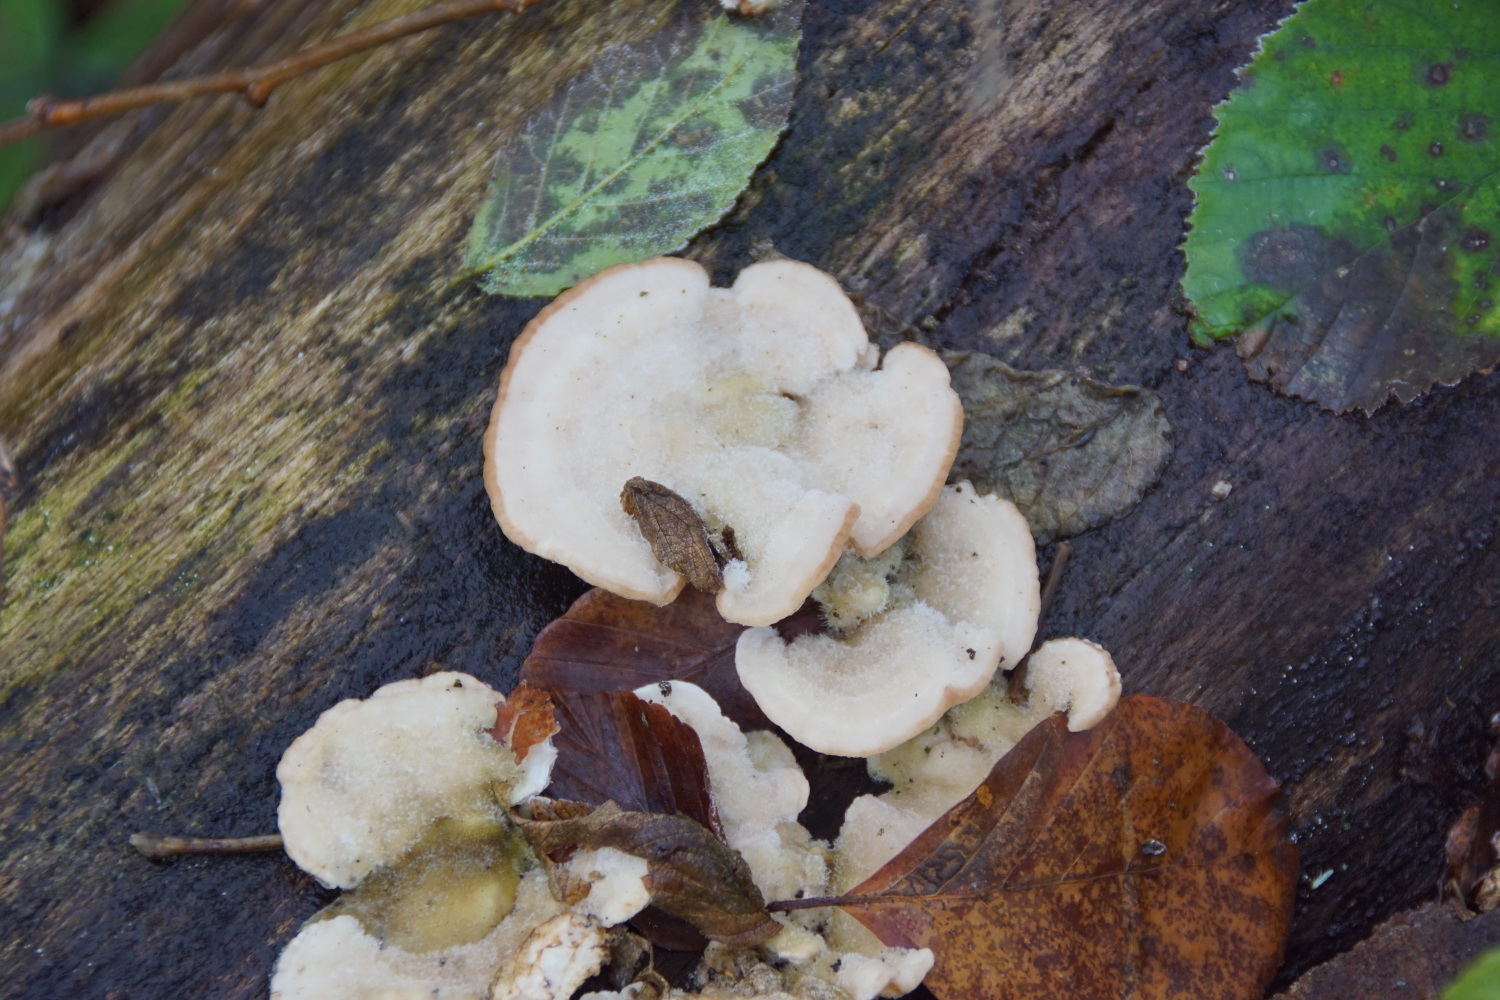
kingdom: Fungi
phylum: Basidiomycota
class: Agaricomycetes
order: Polyporales
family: Polyporaceae
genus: Trametes
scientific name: Trametes hirsuta
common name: håret læderporesvamp
